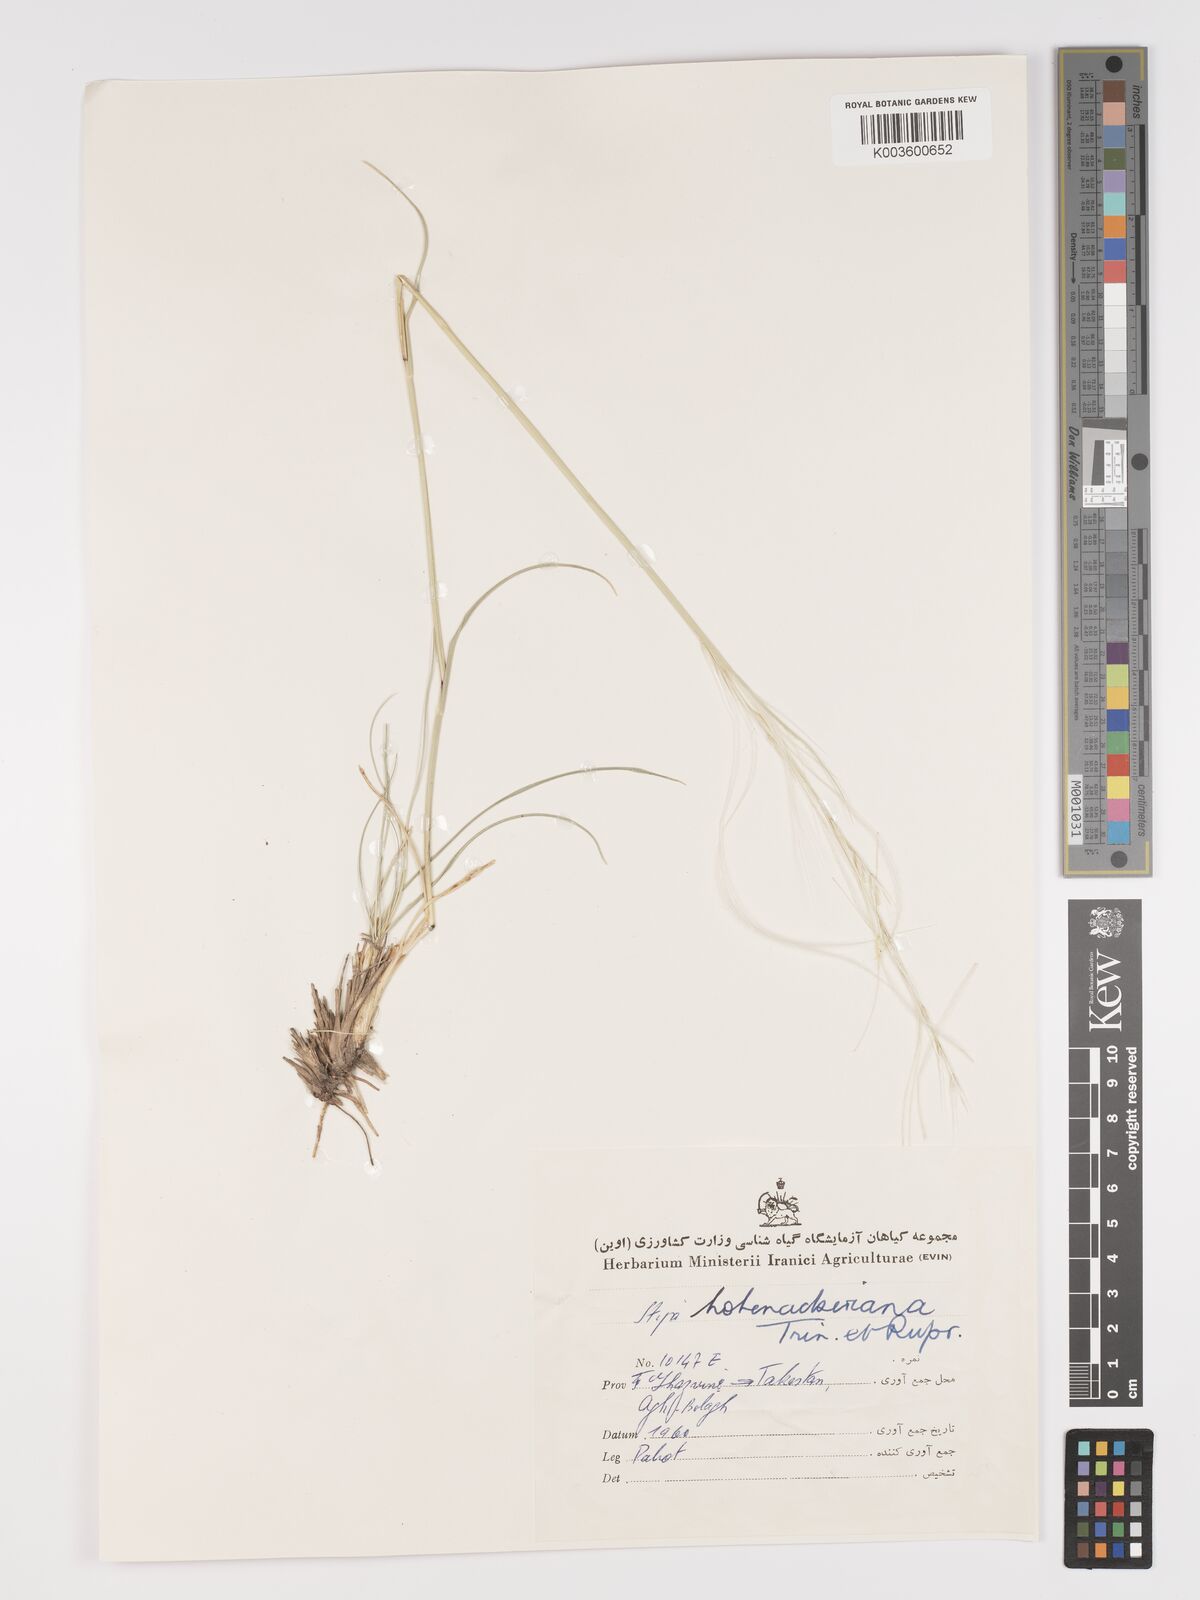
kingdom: Plantae
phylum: Tracheophyta
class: Liliopsida
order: Poales
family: Poaceae
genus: Stipa
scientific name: Stipa hohenackeriana
